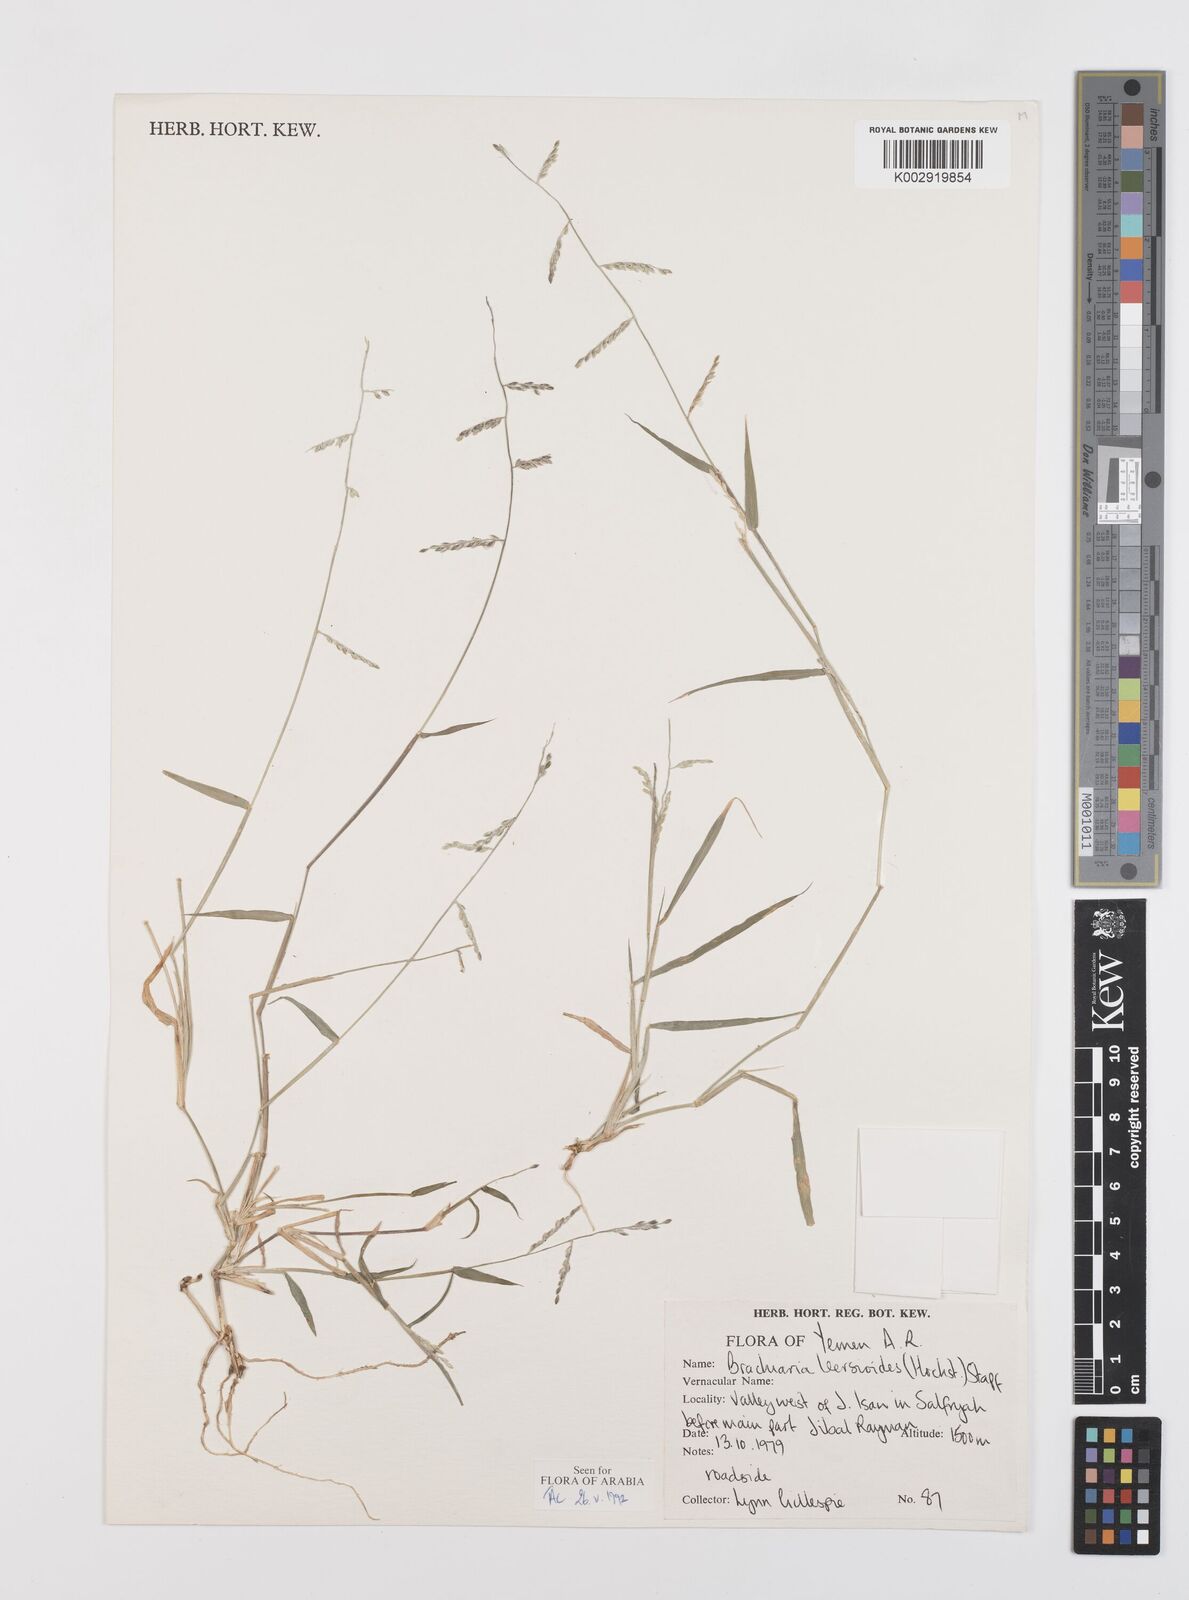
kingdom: Plantae
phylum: Tracheophyta
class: Liliopsida
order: Poales
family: Poaceae
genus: Urochloa
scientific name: Urochloa leersioides
